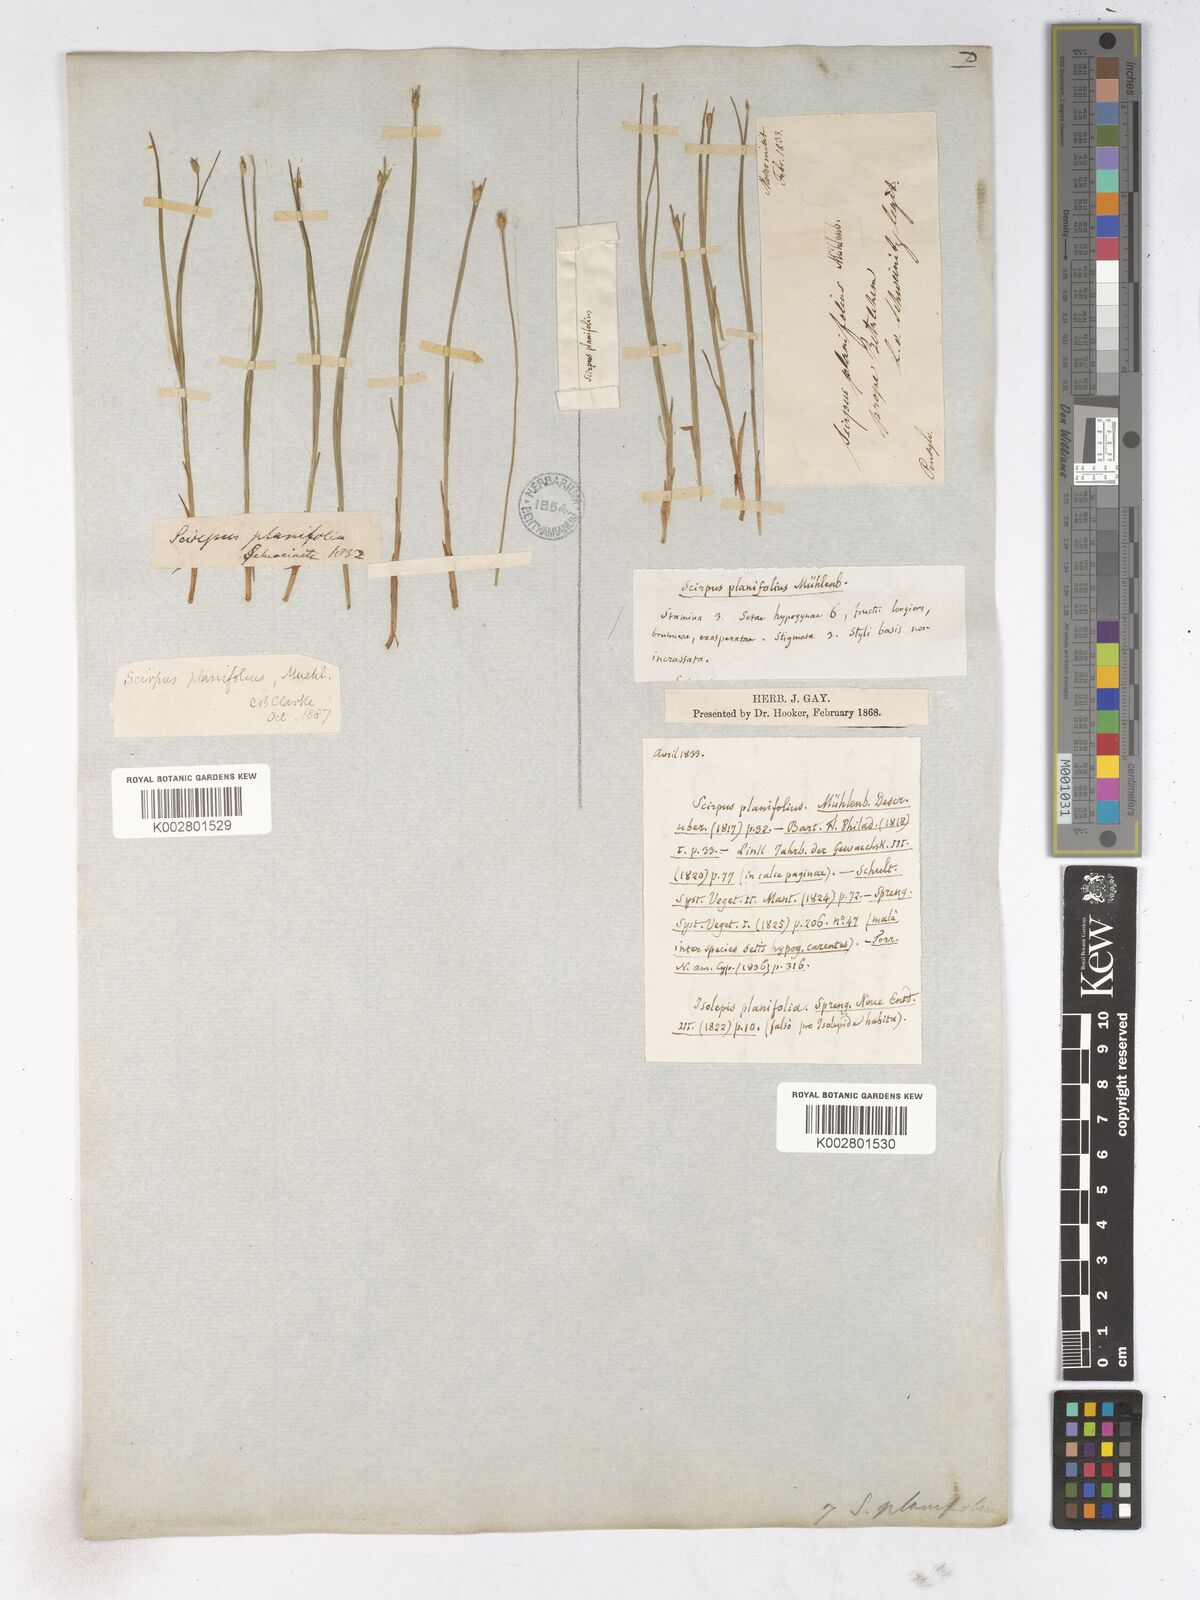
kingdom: Plantae
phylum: Tracheophyta
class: Liliopsida
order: Poales
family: Cyperaceae
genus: Trichophorum
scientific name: Trichophorum planifolium
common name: Bashful bulrush
